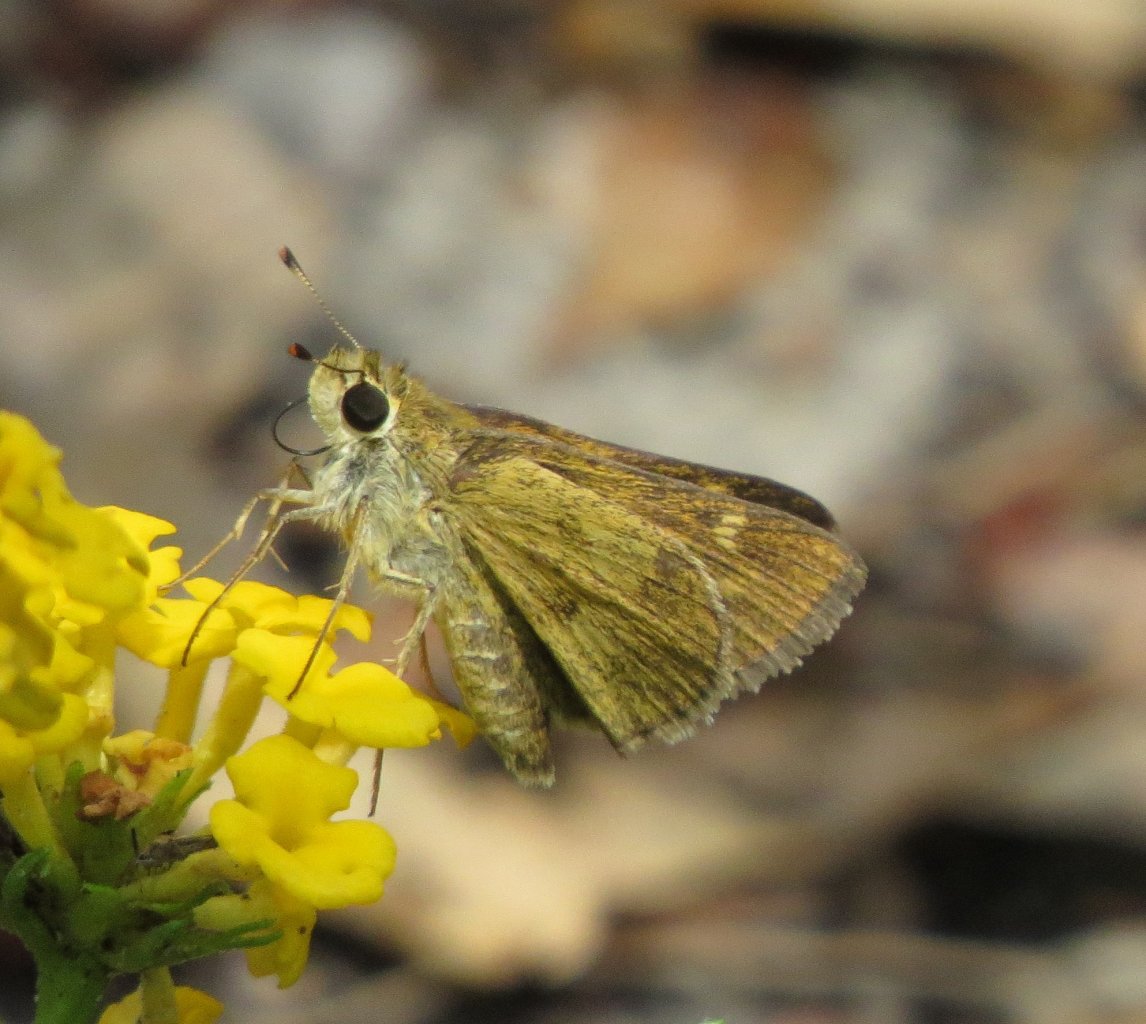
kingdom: Animalia
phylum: Arthropoda
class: Insecta
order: Lepidoptera
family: Hesperiidae
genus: Polites
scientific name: Polites vibex
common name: Whirlabout
